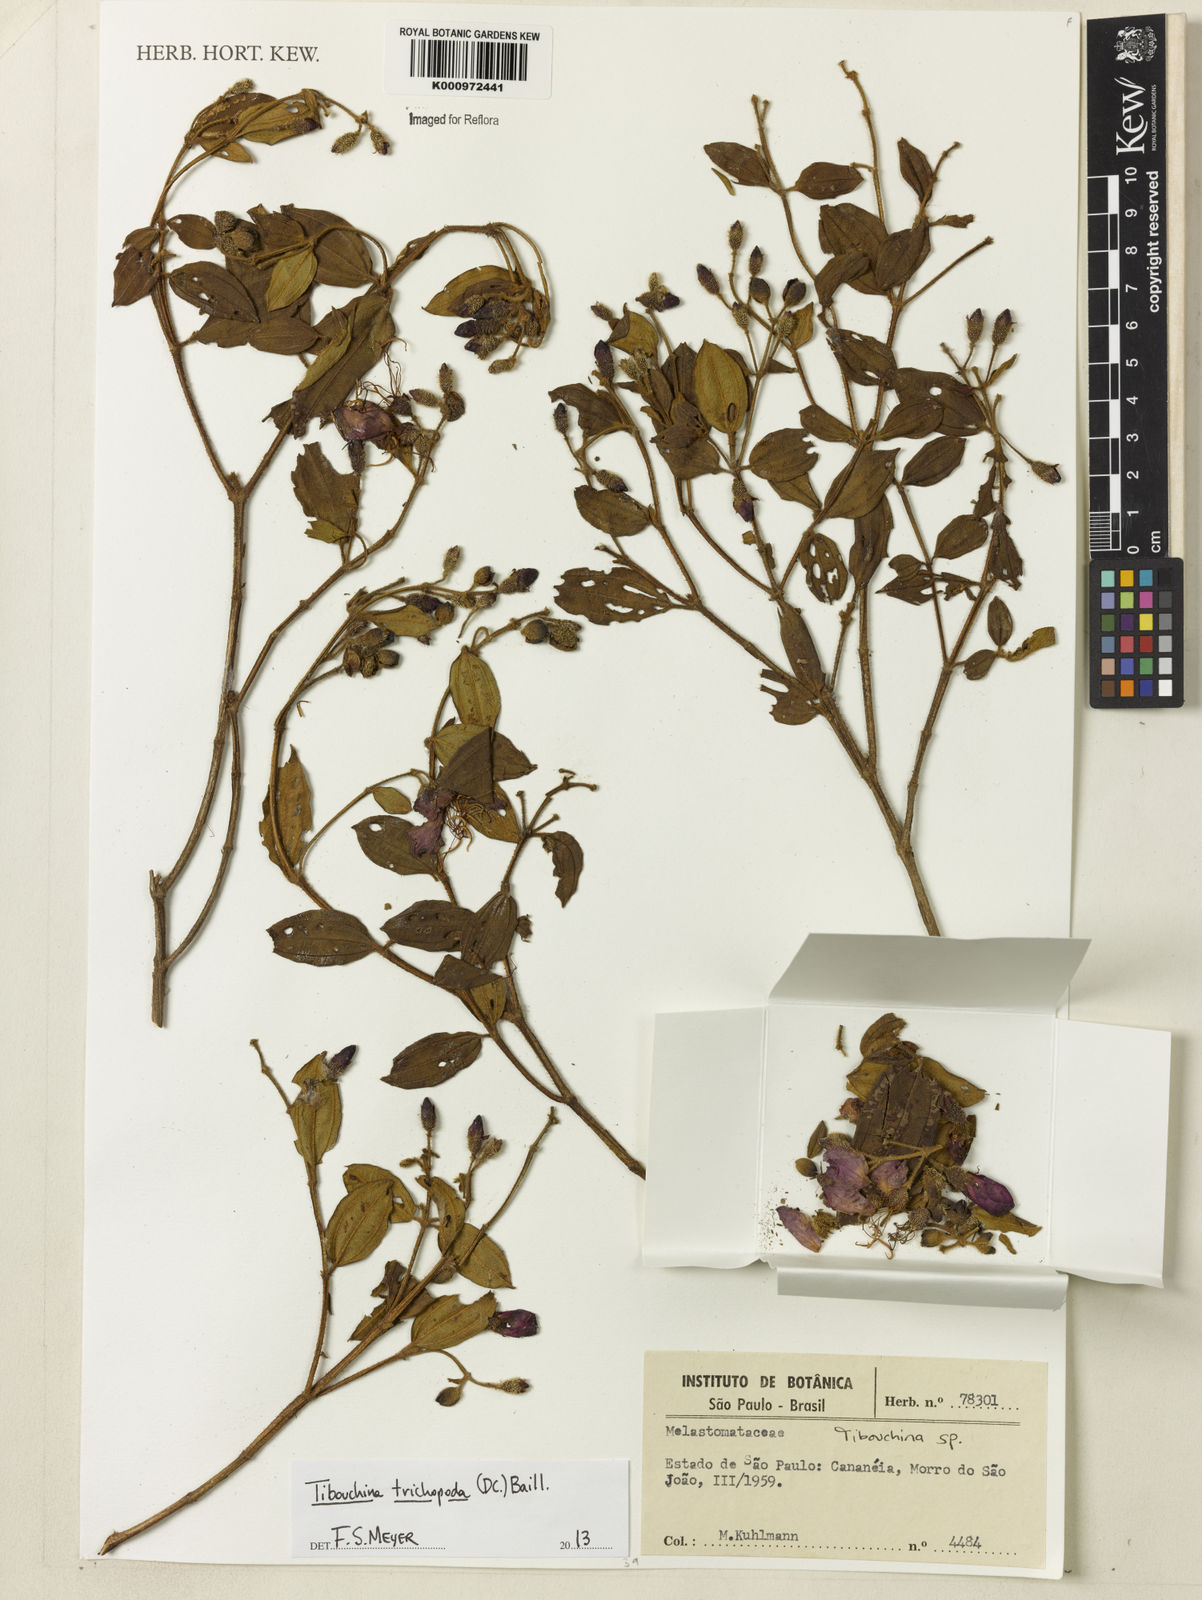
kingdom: Plantae
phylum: Tracheophyta
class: Magnoliopsida
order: Myrtales
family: Melastomataceae
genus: Pleroma
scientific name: Pleroma trichopodum
